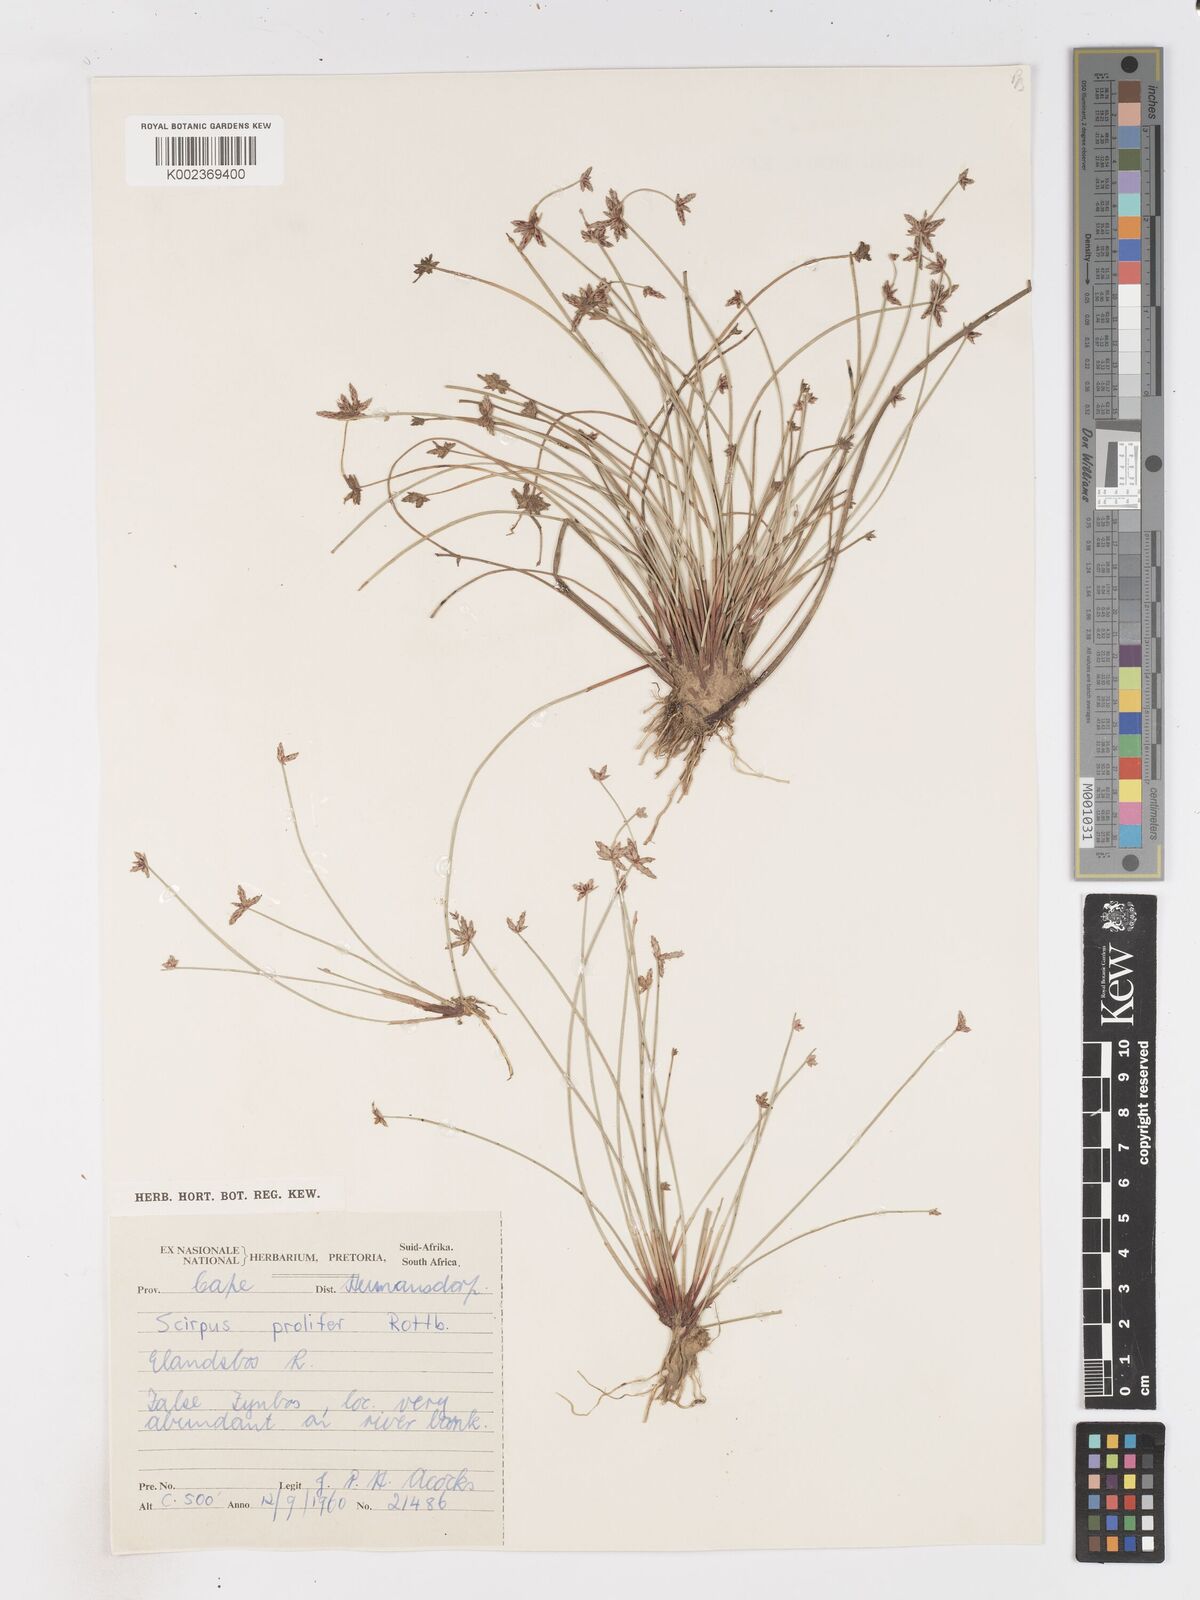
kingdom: Plantae
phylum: Tracheophyta
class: Liliopsida
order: Poales
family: Cyperaceae
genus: Isolepis
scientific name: Isolepis prolifera
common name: Proliferating bulrush
